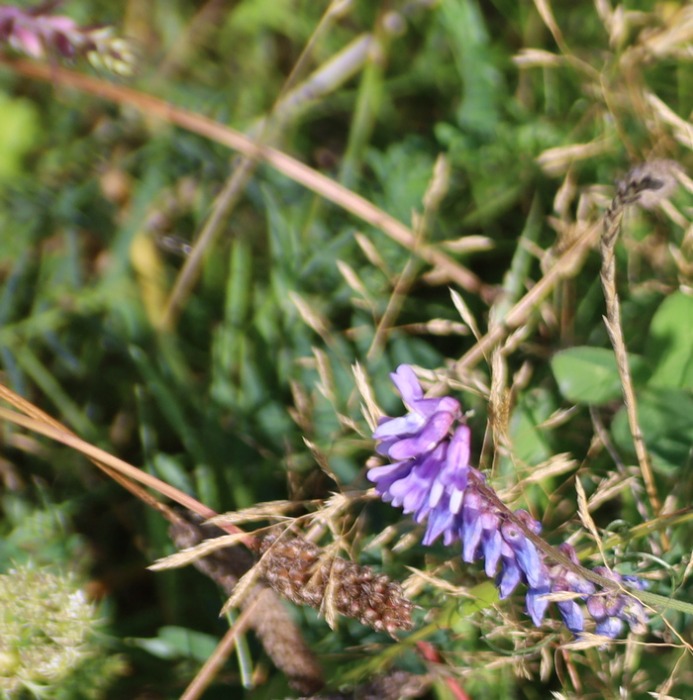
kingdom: Plantae
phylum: Tracheophyta
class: Magnoliopsida
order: Fabales
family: Fabaceae
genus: Vicia
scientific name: Vicia cracca
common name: Muse-vikke
